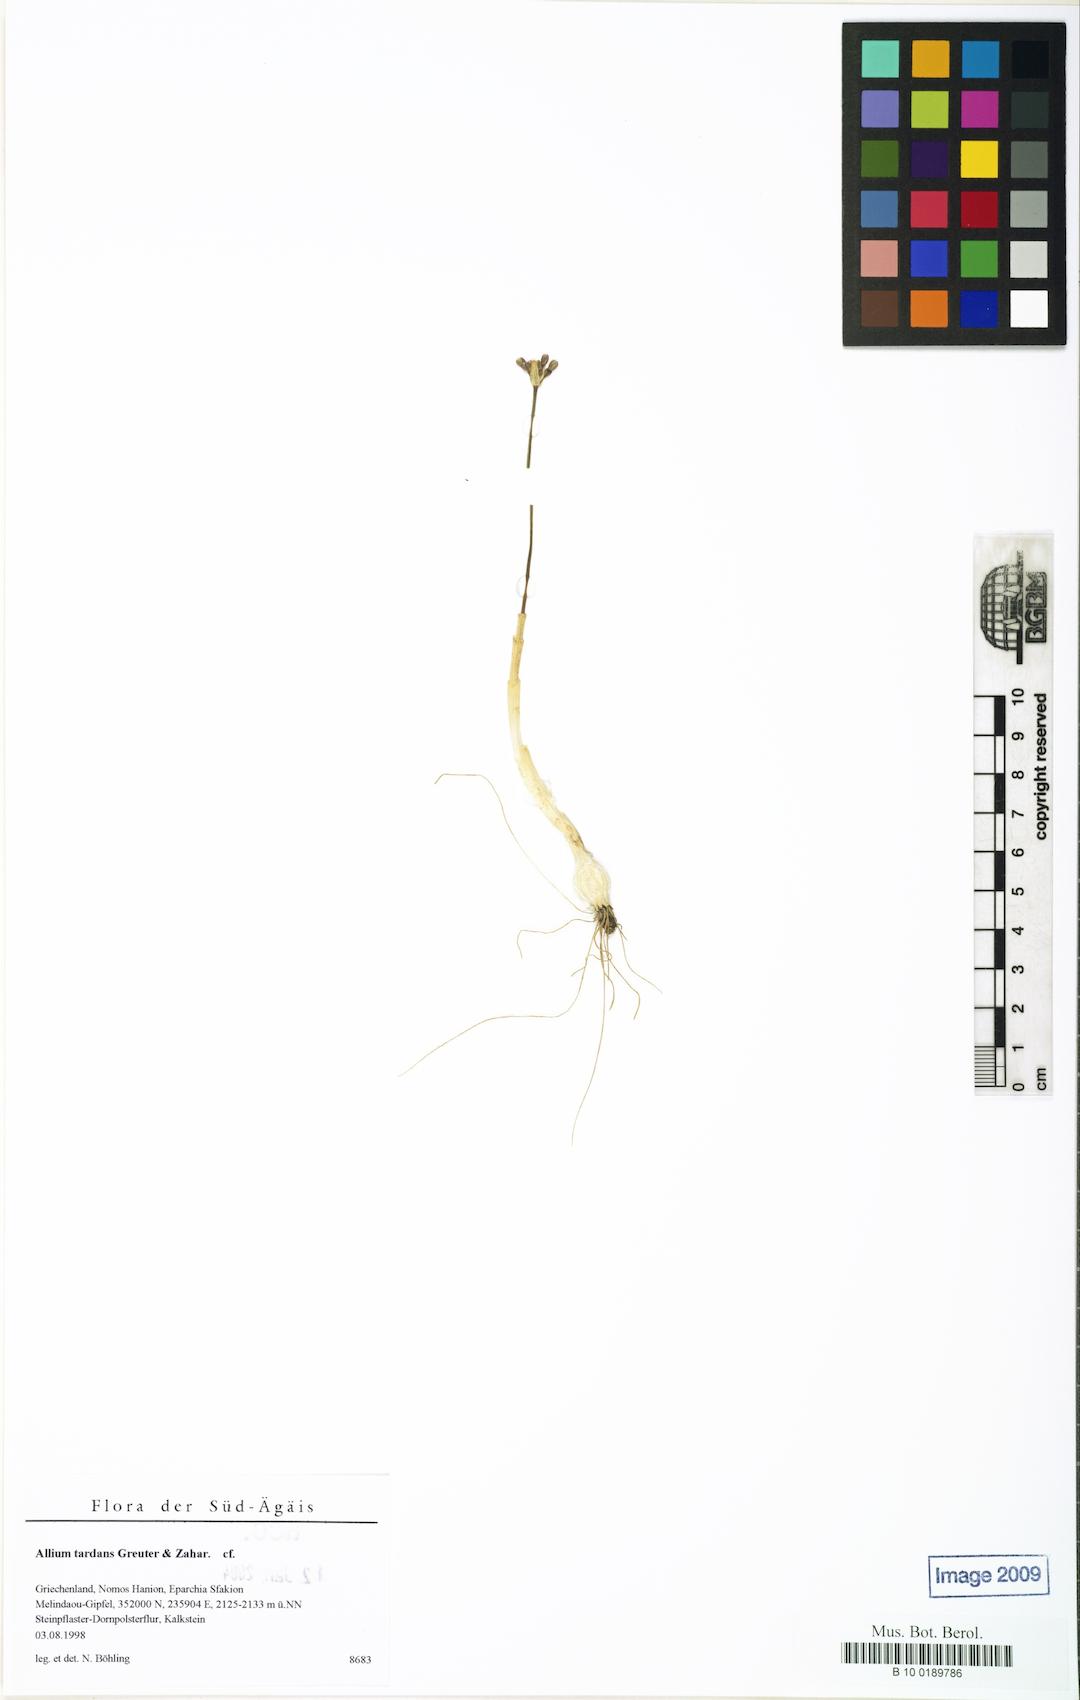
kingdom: Plantae
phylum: Tracheophyta
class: Liliopsida
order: Asparagales
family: Amaryllidaceae
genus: Allium
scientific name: Allium tardans
